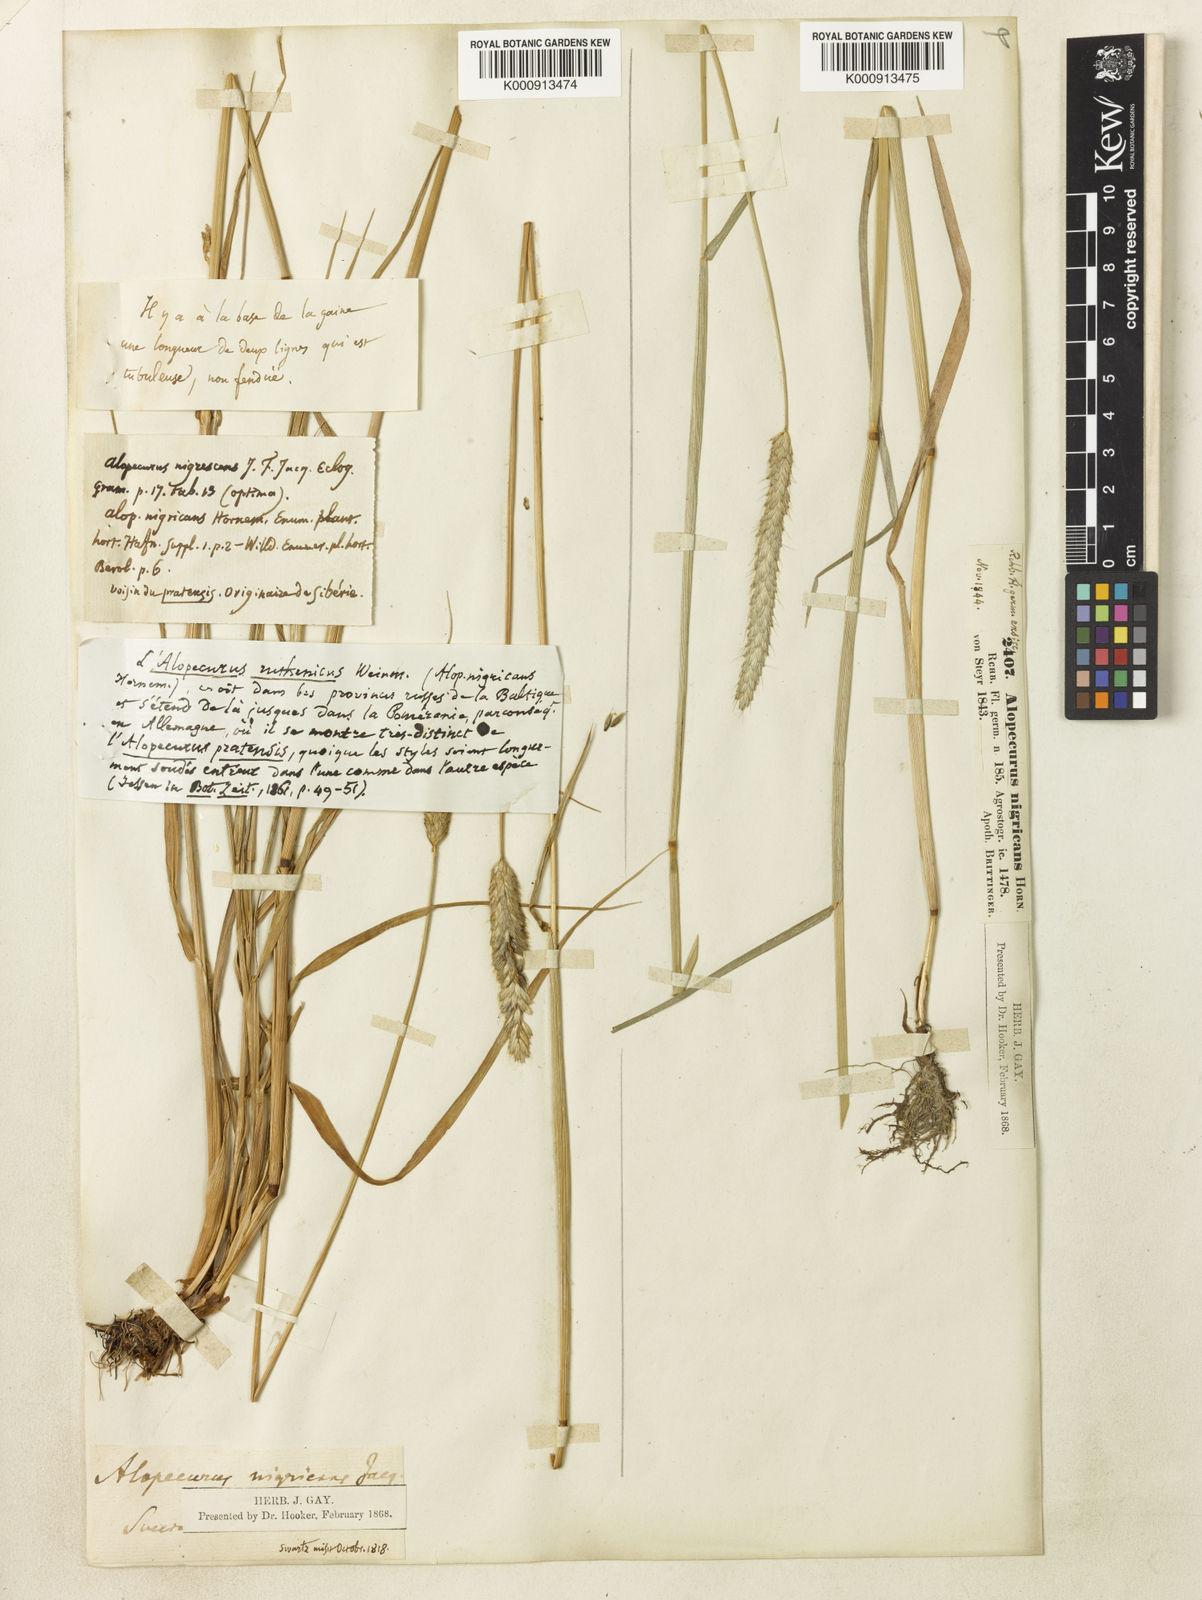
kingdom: Plantae
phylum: Tracheophyta
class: Liliopsida
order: Poales
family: Poaceae
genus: Alopecurus
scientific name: Alopecurus arundinaceus
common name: Creeping meadow foxtail
